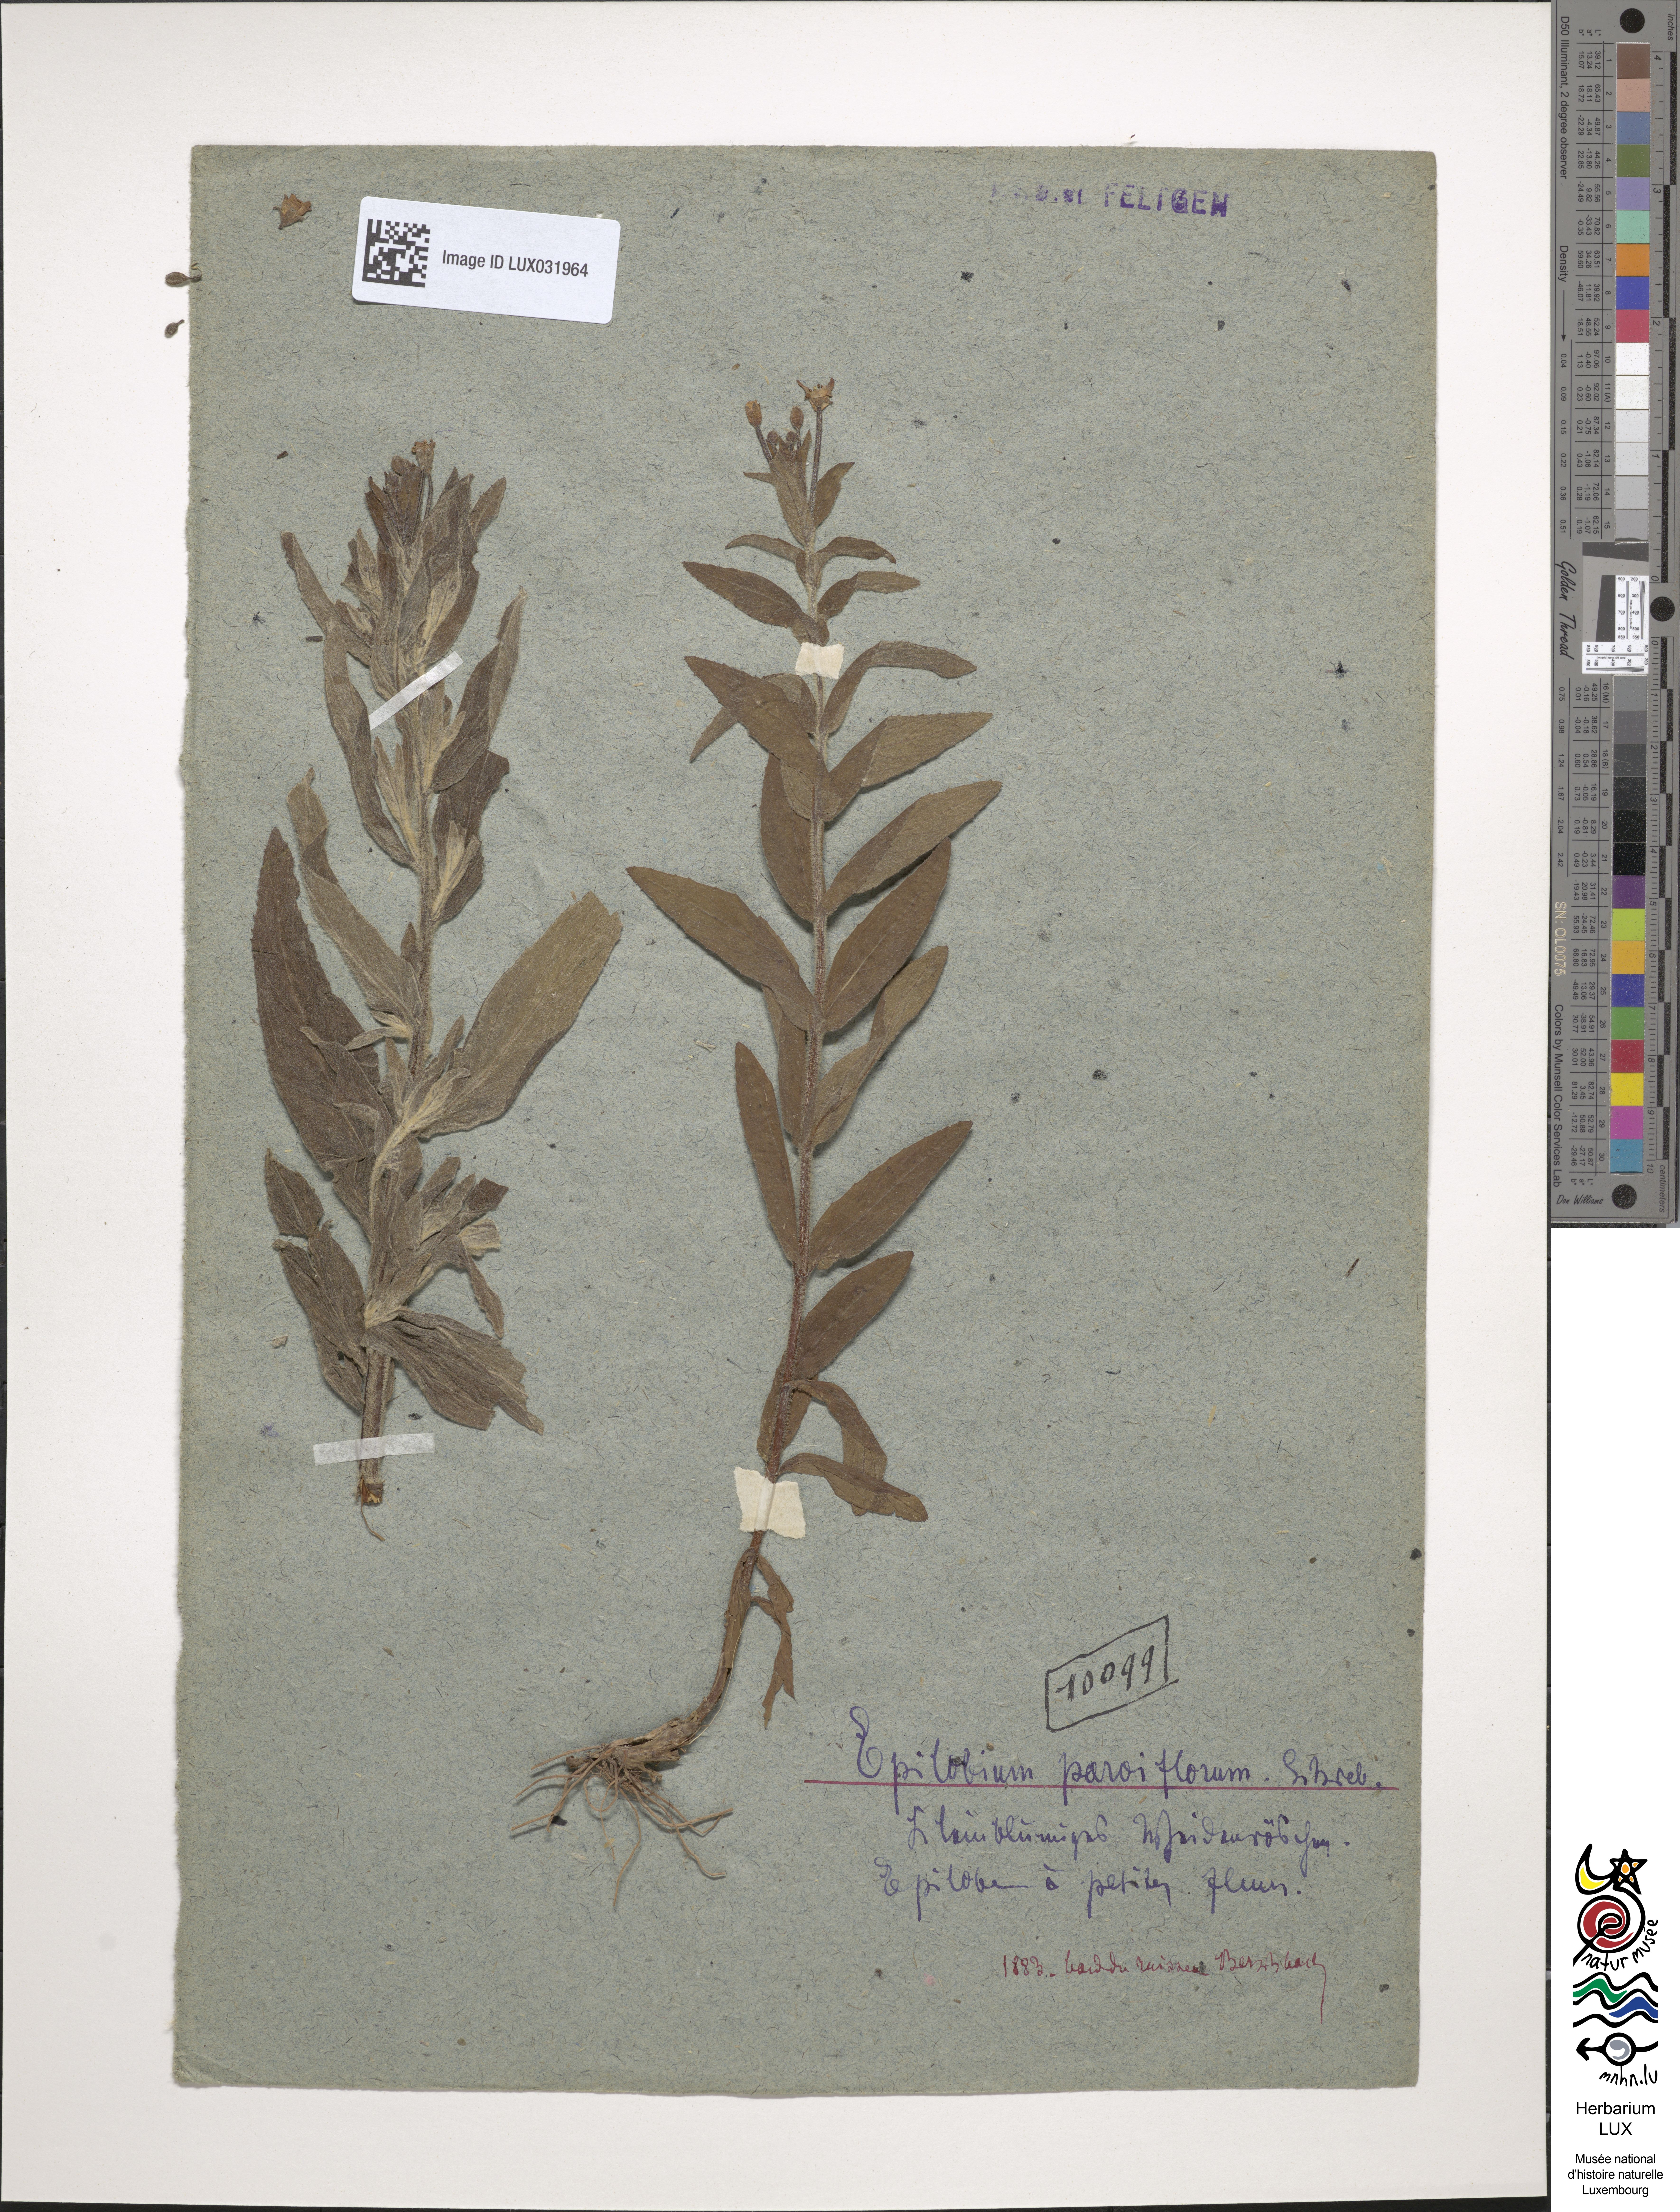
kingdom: Plantae
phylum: Tracheophyta
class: Magnoliopsida
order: Myrtales
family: Onagraceae
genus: Epilobium
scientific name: Epilobium parviflorum
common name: Hoary willowherb
